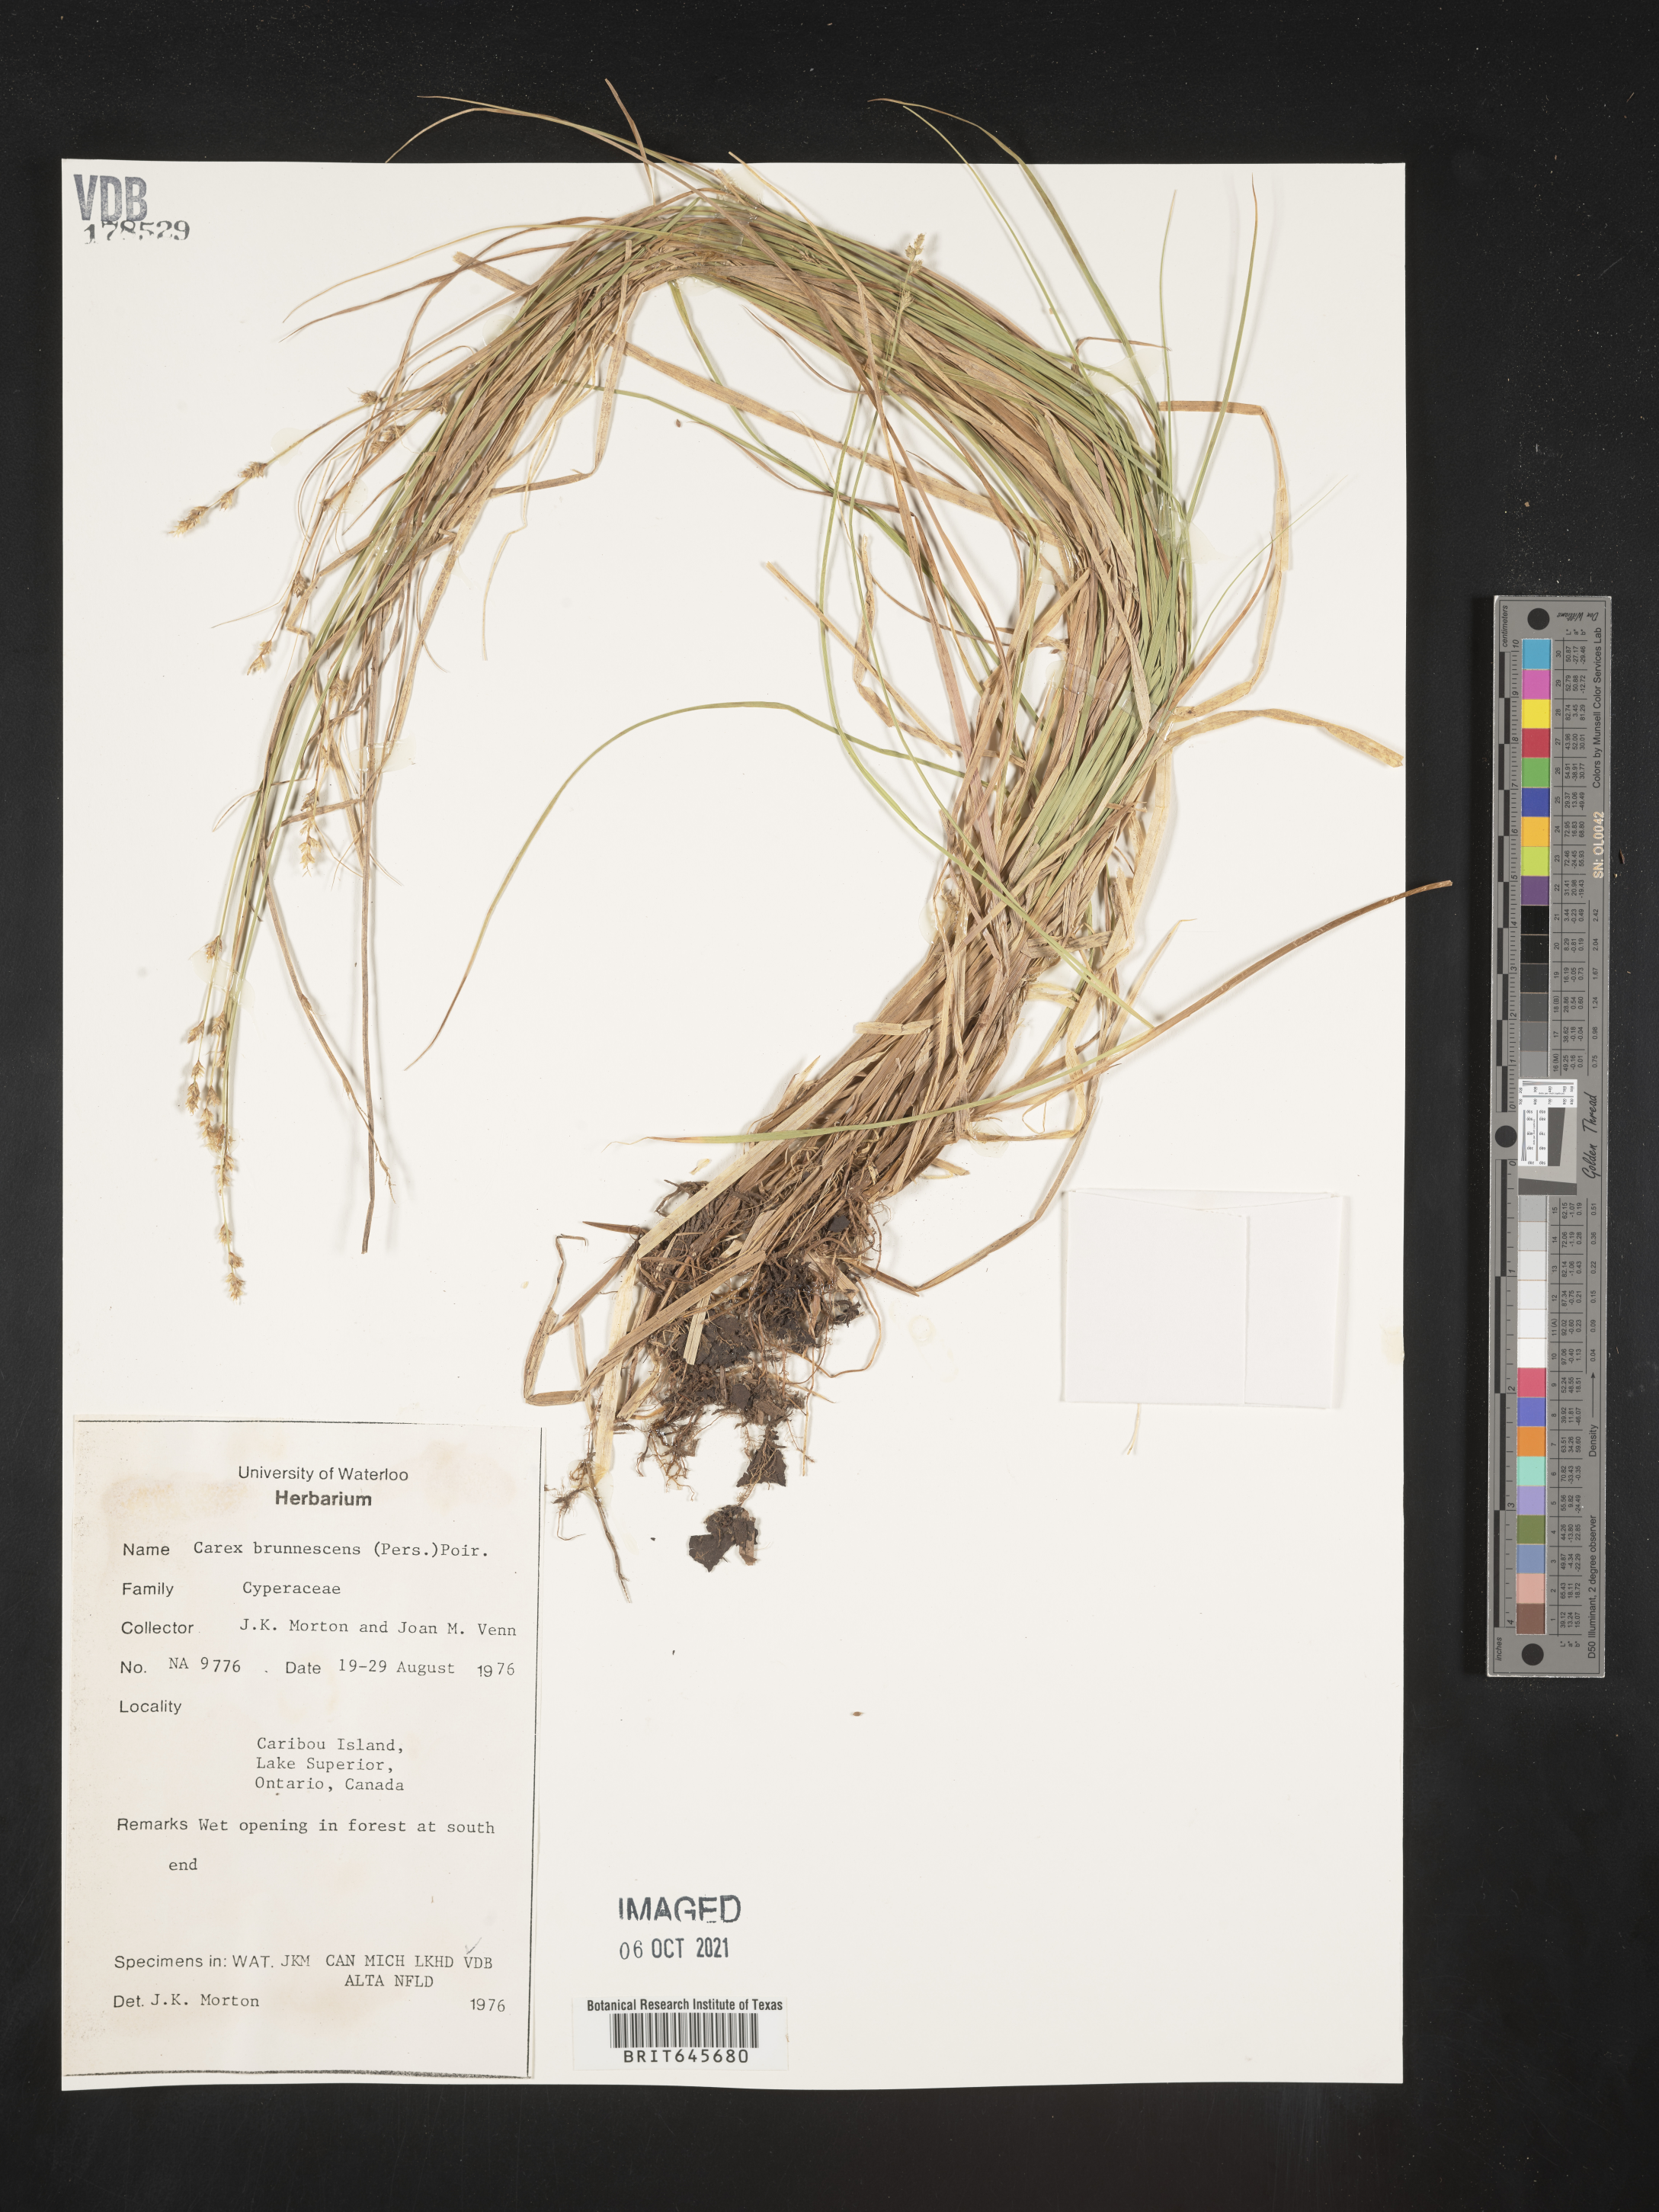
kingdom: Plantae
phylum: Tracheophyta
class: Liliopsida
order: Poales
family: Cyperaceae
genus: Carex
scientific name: Carex brunnescens
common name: Brown sedge
